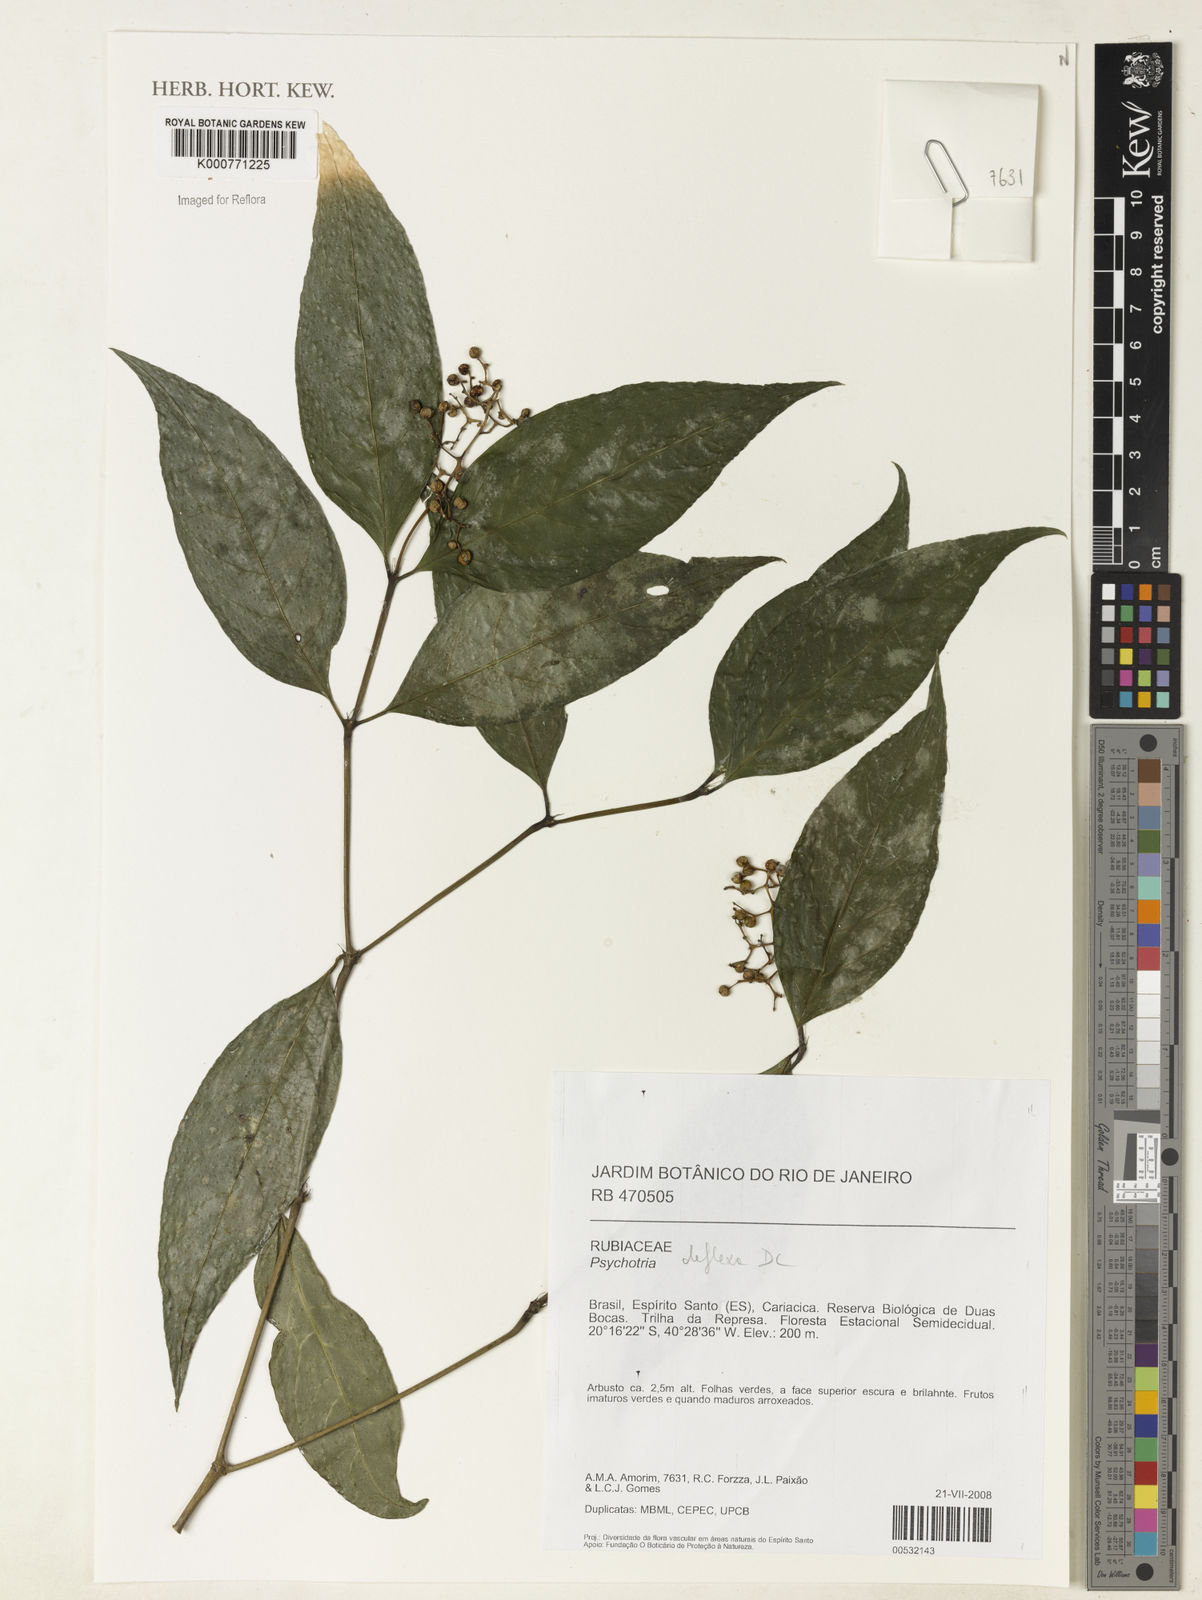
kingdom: Plantae
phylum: Tracheophyta
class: Magnoliopsida
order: Gentianales
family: Rubiaceae
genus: Palicourea
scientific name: Palicourea deflexa
